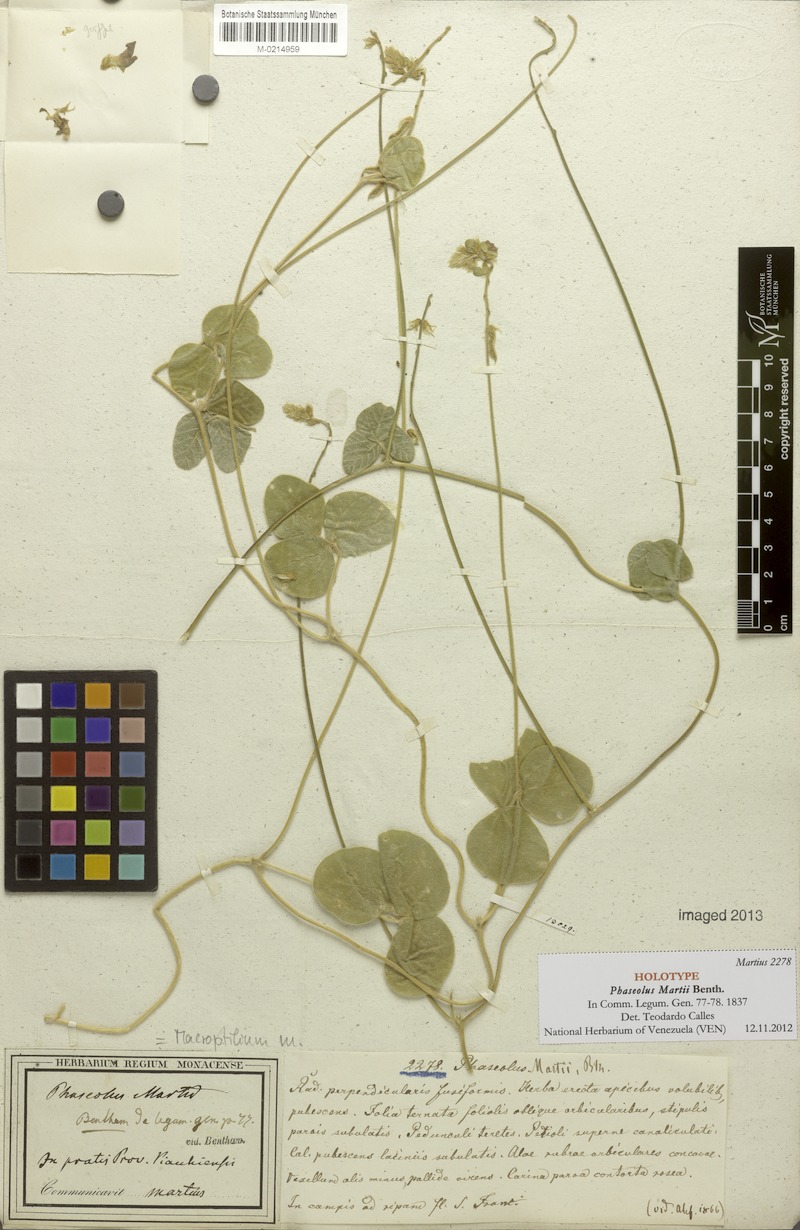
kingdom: Plantae
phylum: Tracheophyta
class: Magnoliopsida
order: Fabales
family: Fabaceae
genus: Macroptilium
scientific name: Macroptilium martii
